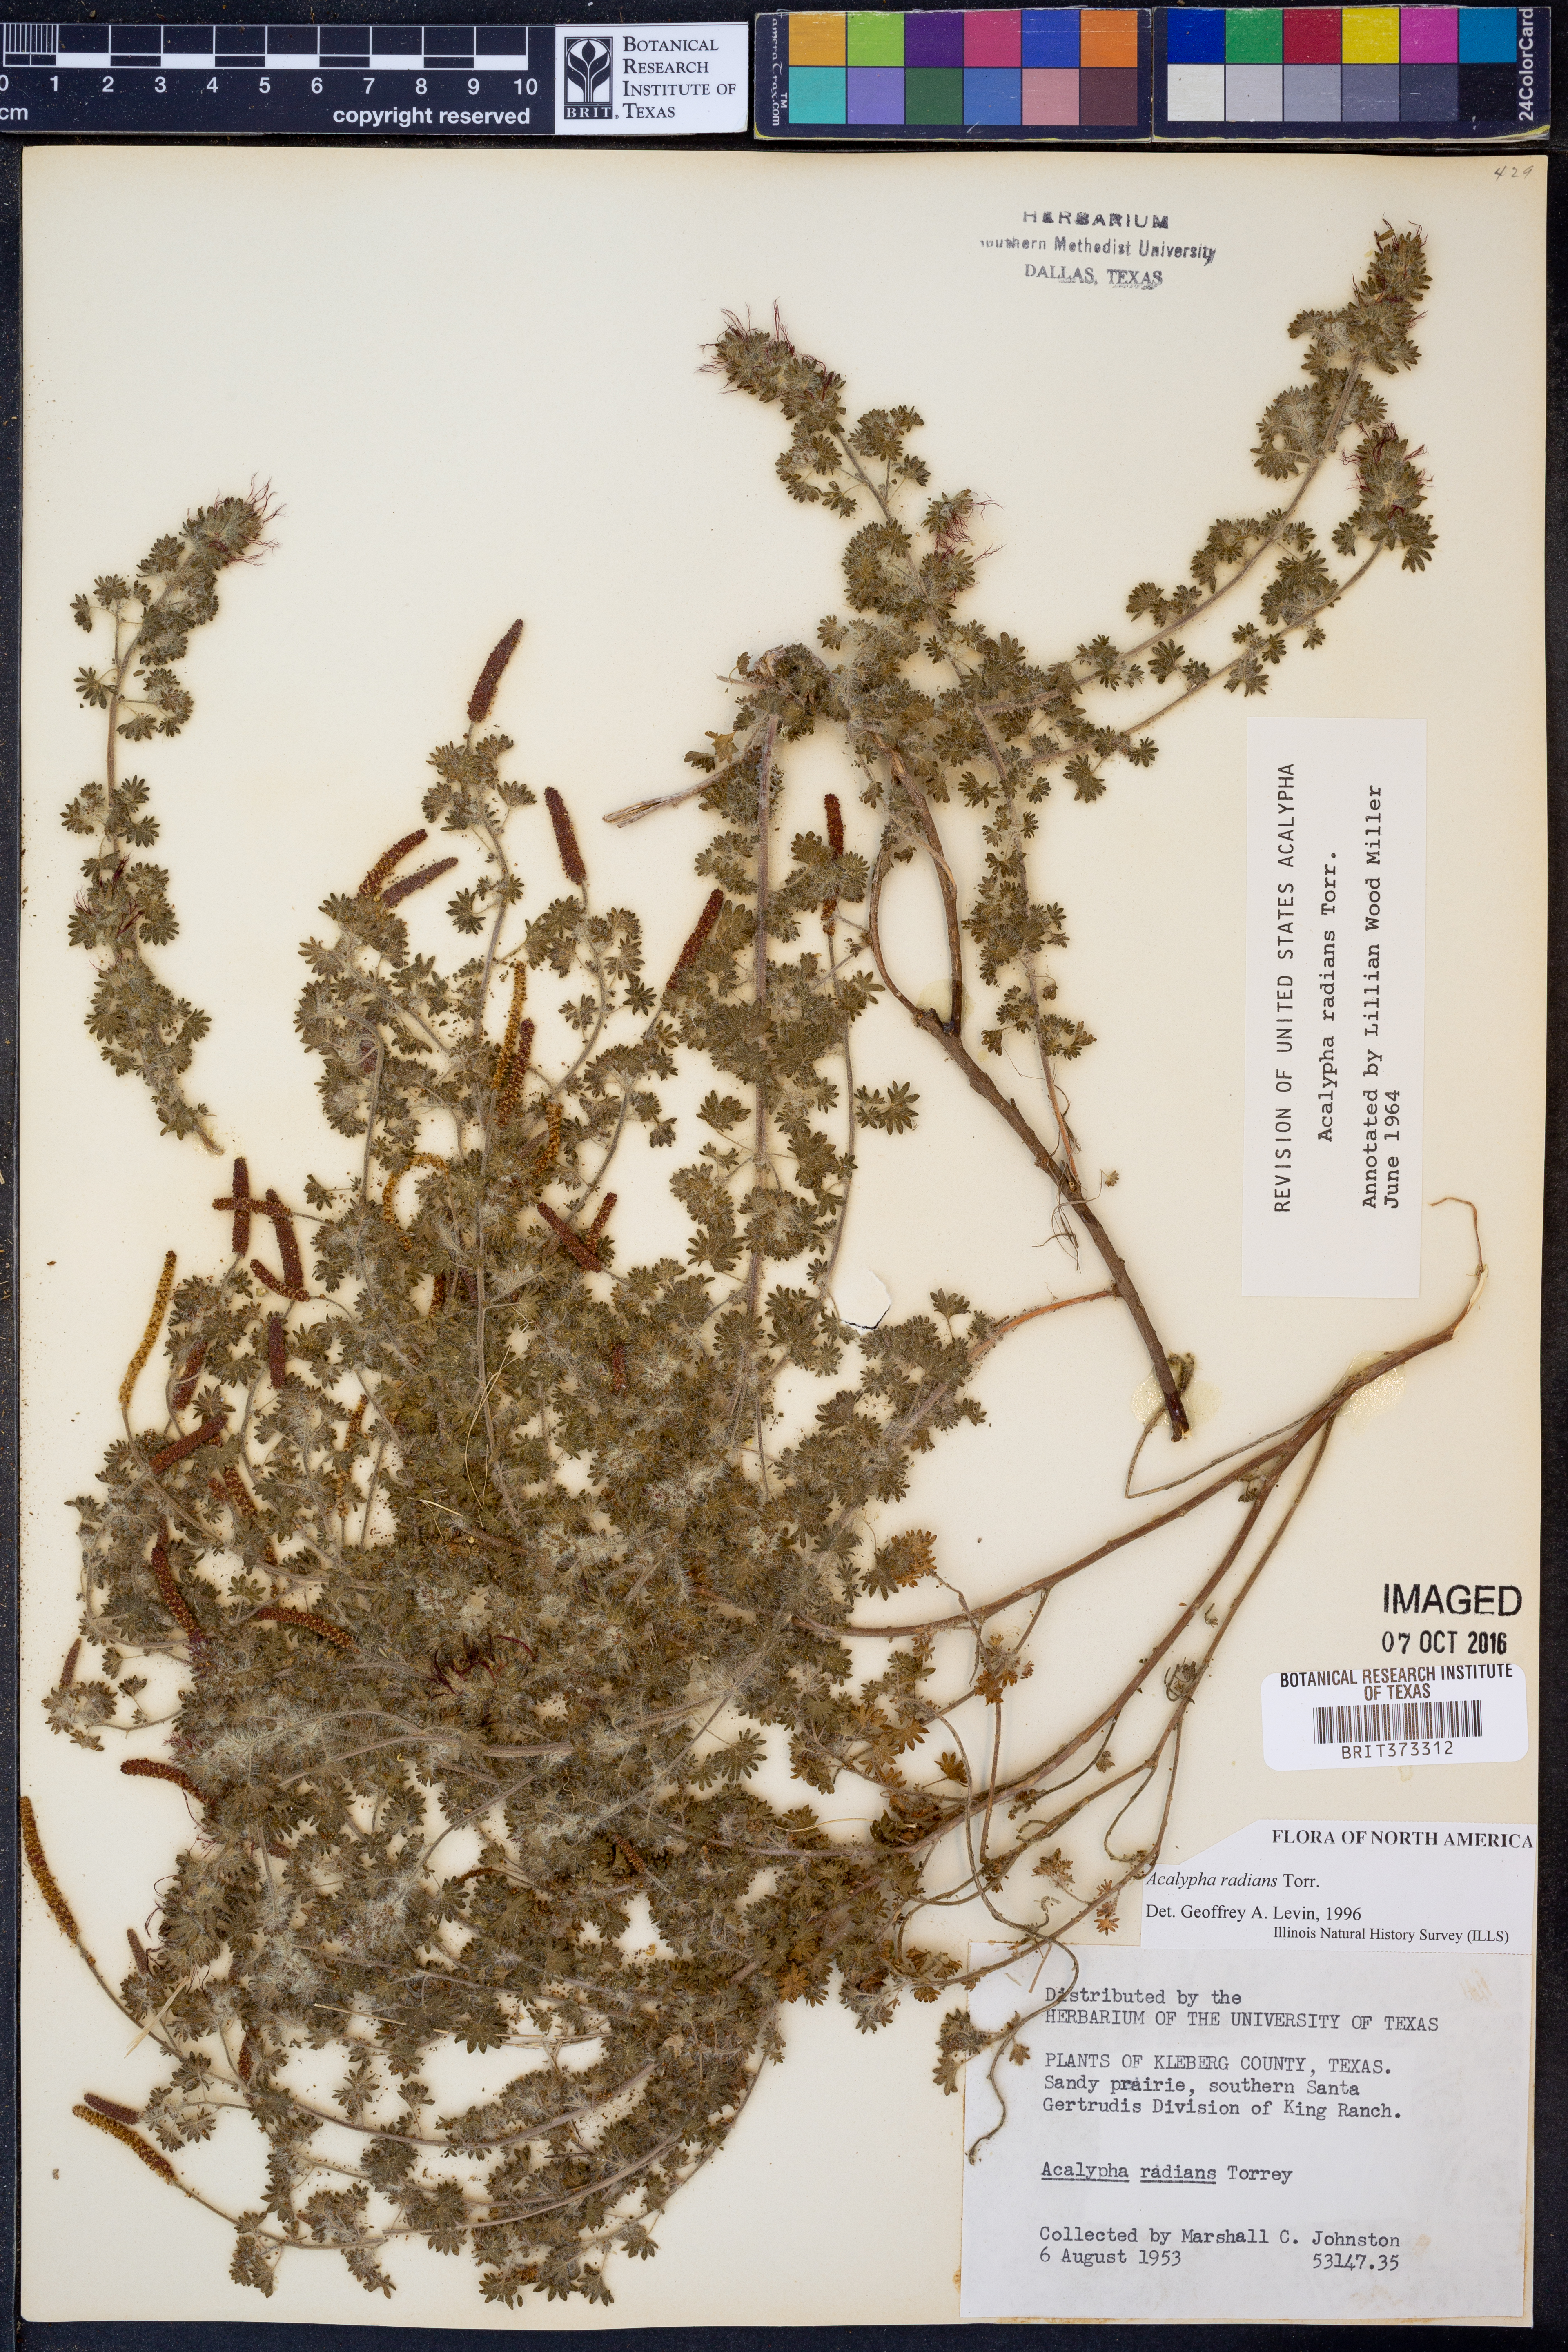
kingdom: Plantae
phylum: Tracheophyta
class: Magnoliopsida
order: Malpighiales
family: Euphorbiaceae
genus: Acalypha
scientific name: Acalypha radians
